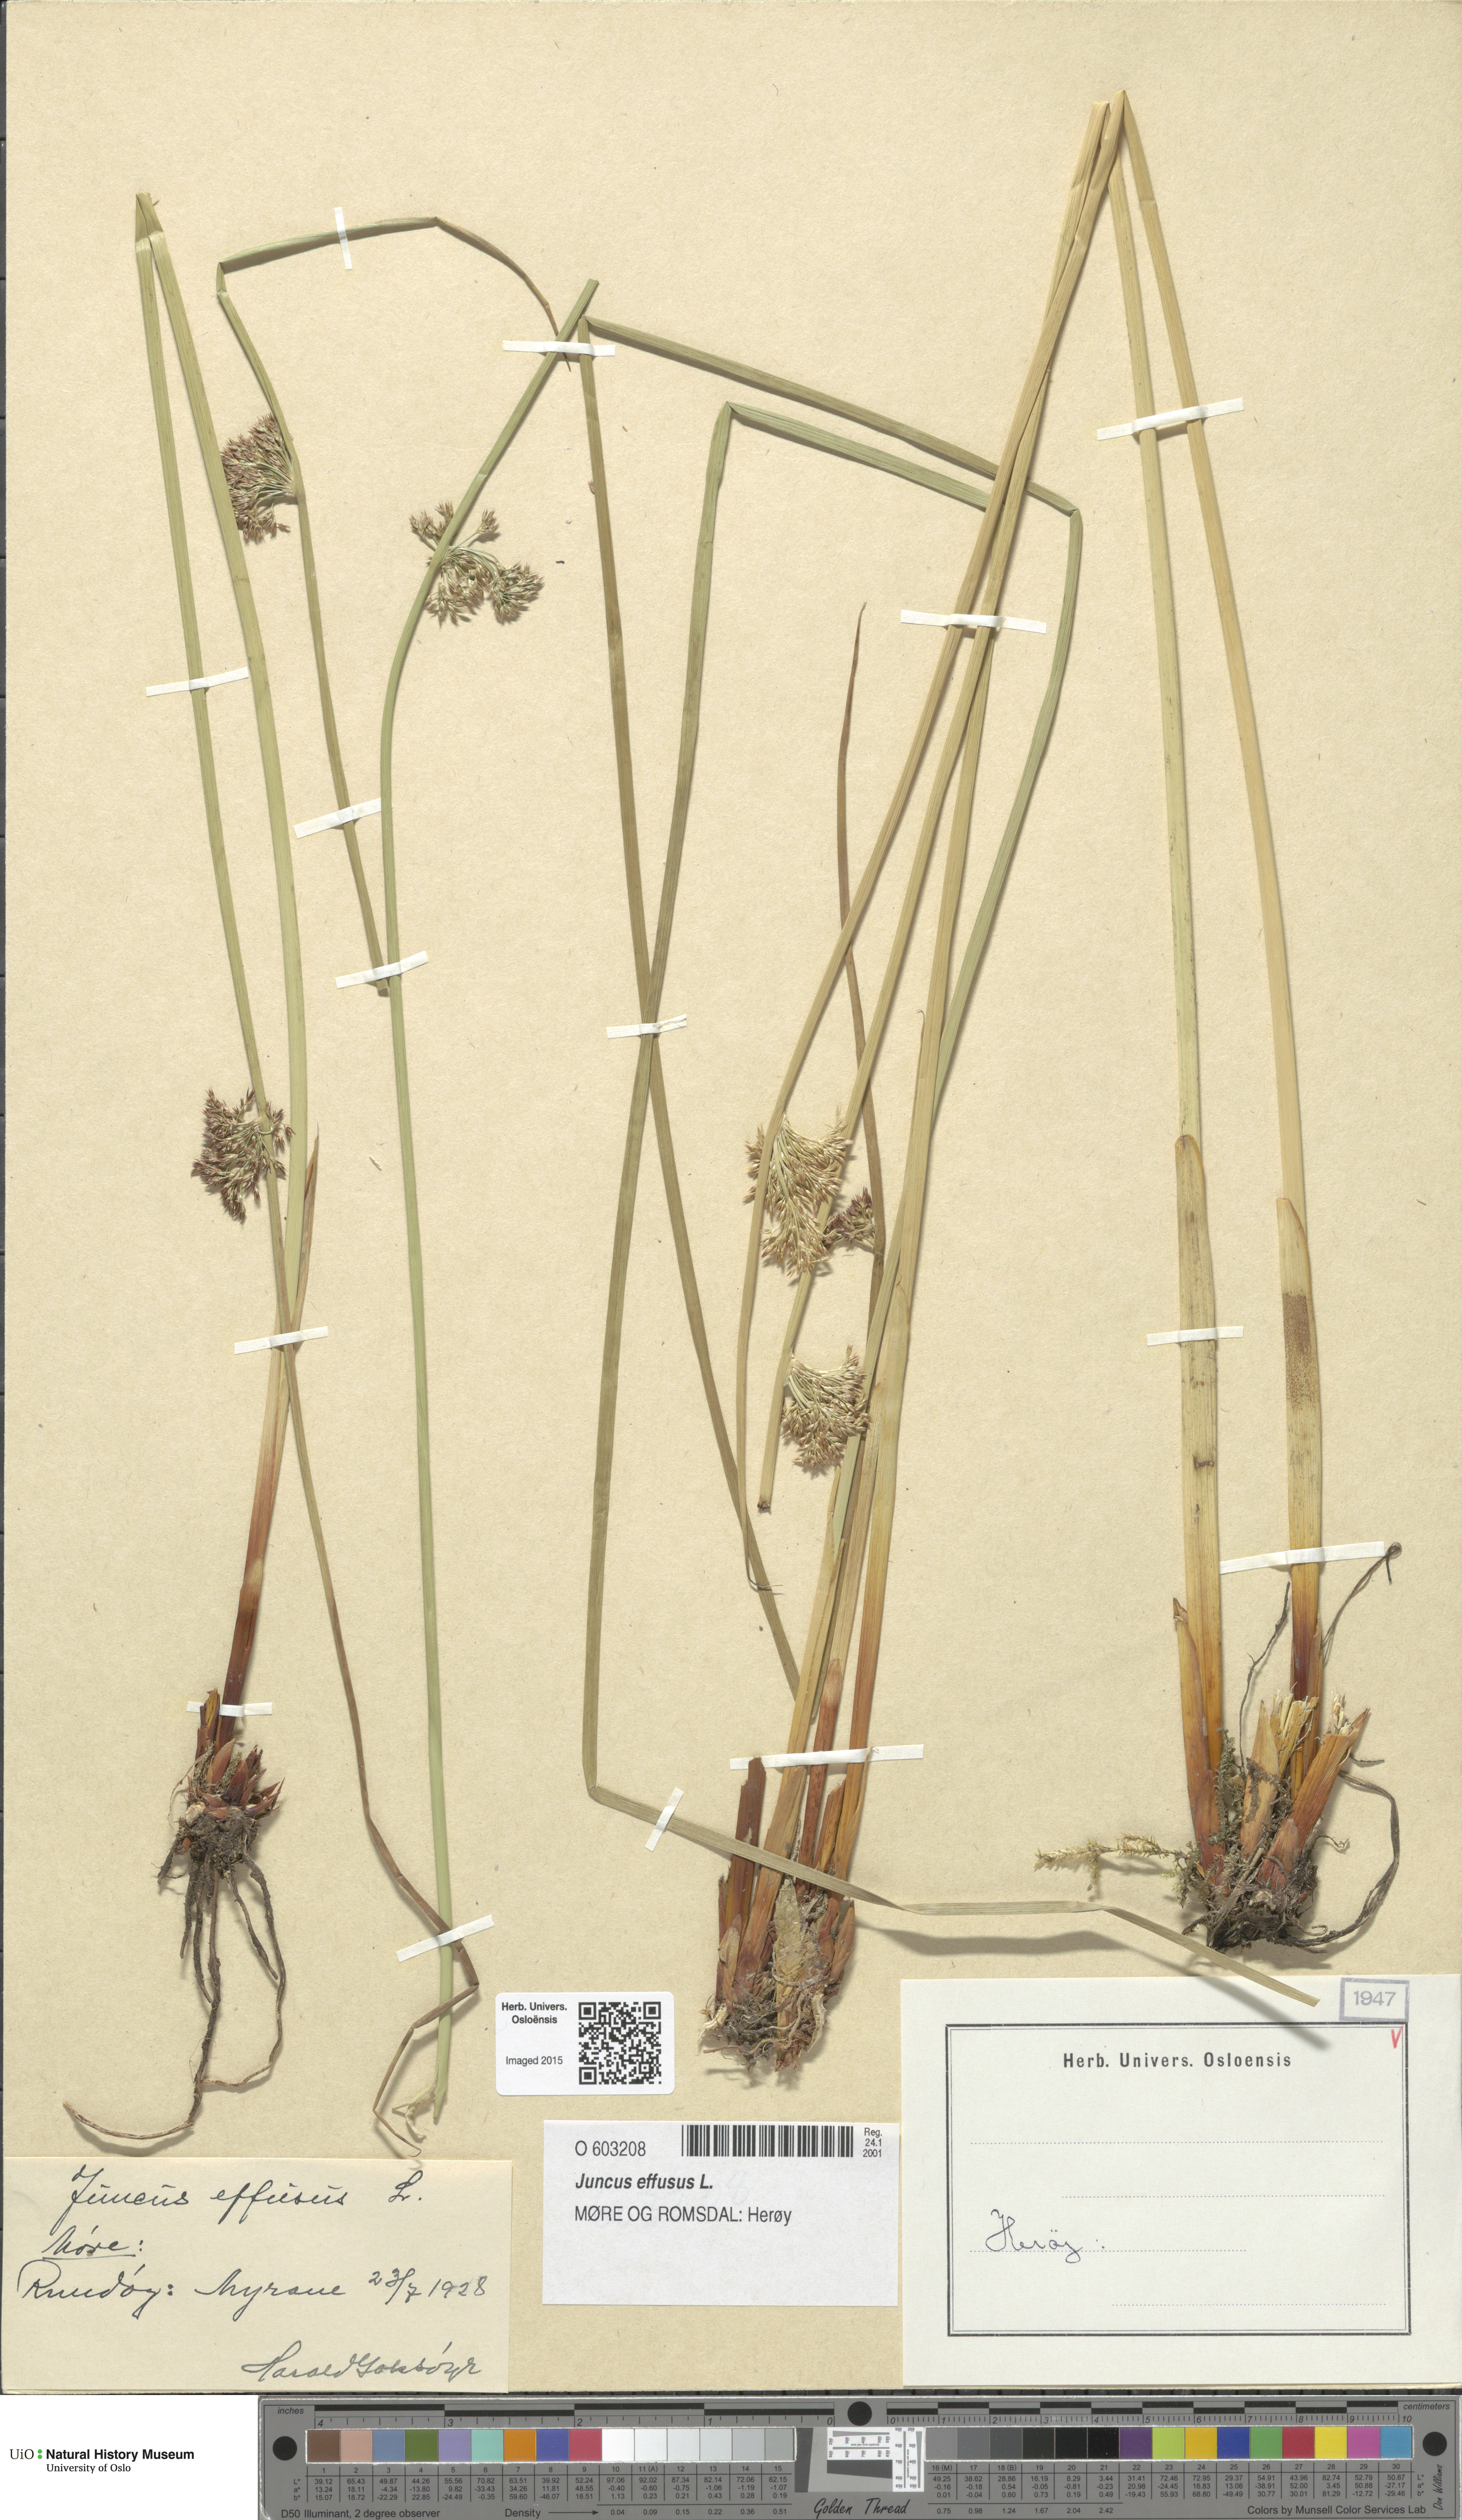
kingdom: Plantae
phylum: Tracheophyta
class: Liliopsida
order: Poales
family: Juncaceae
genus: Juncus
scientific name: Juncus effusus
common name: Soft rush
